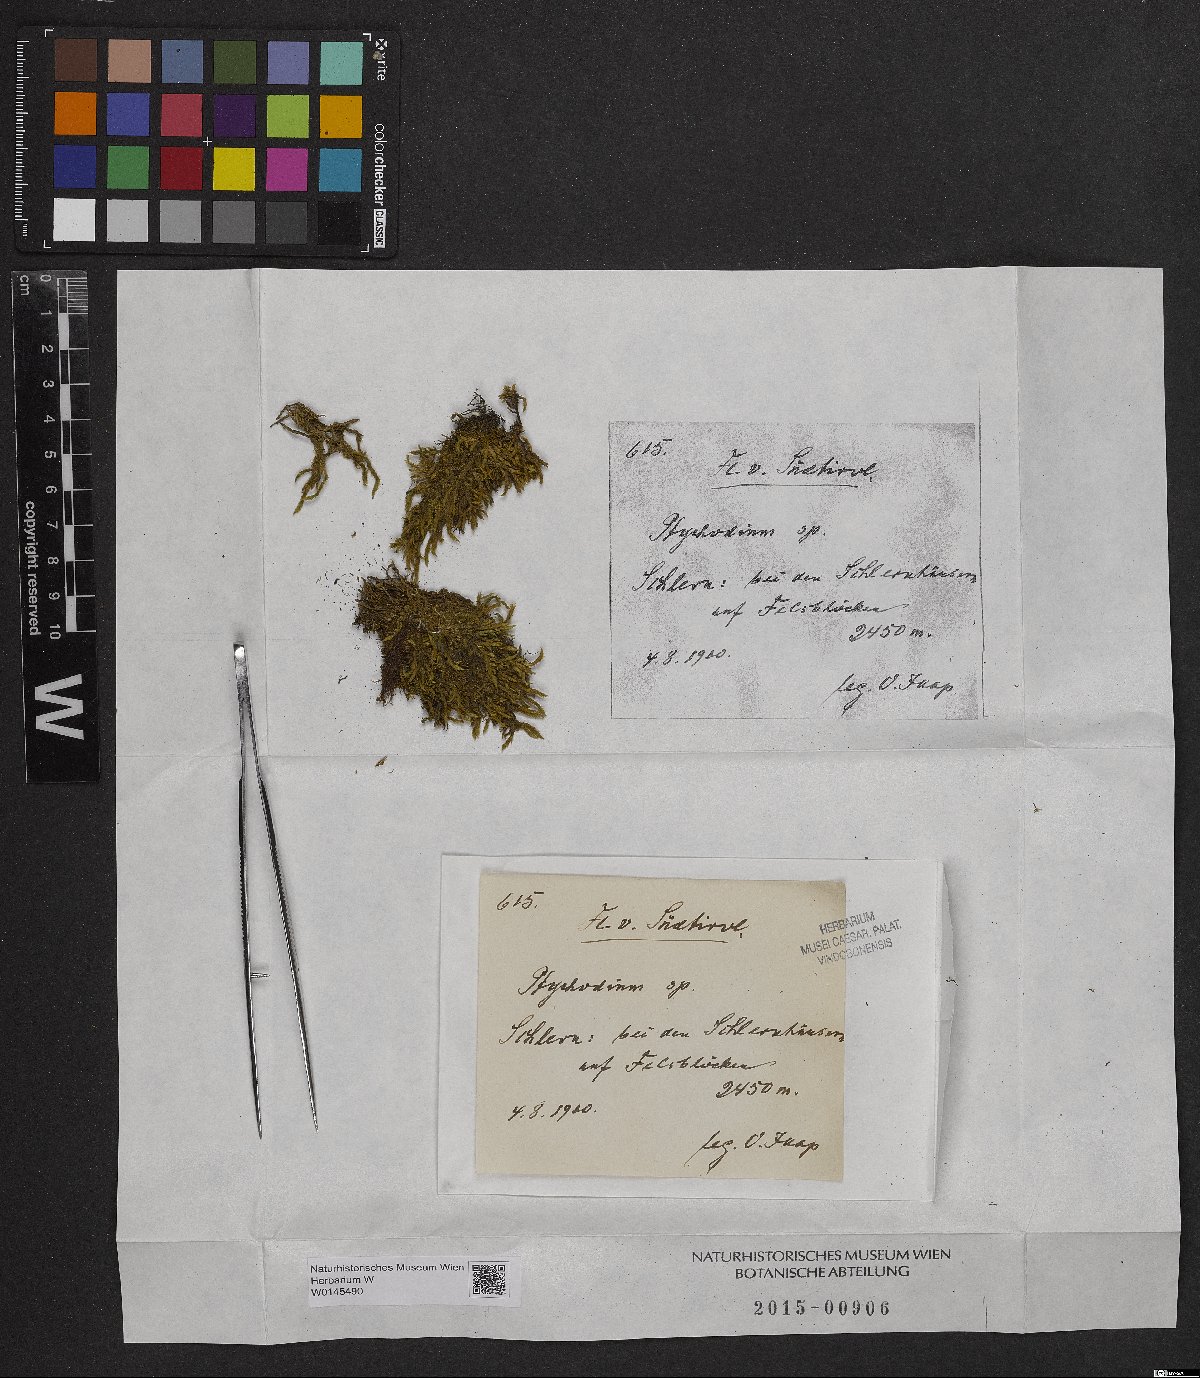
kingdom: Plantae
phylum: Bryophyta
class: Bryopsida
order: Hypnales
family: Pseudoleskeaceae
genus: Lescuraea
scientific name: Lescuraea
